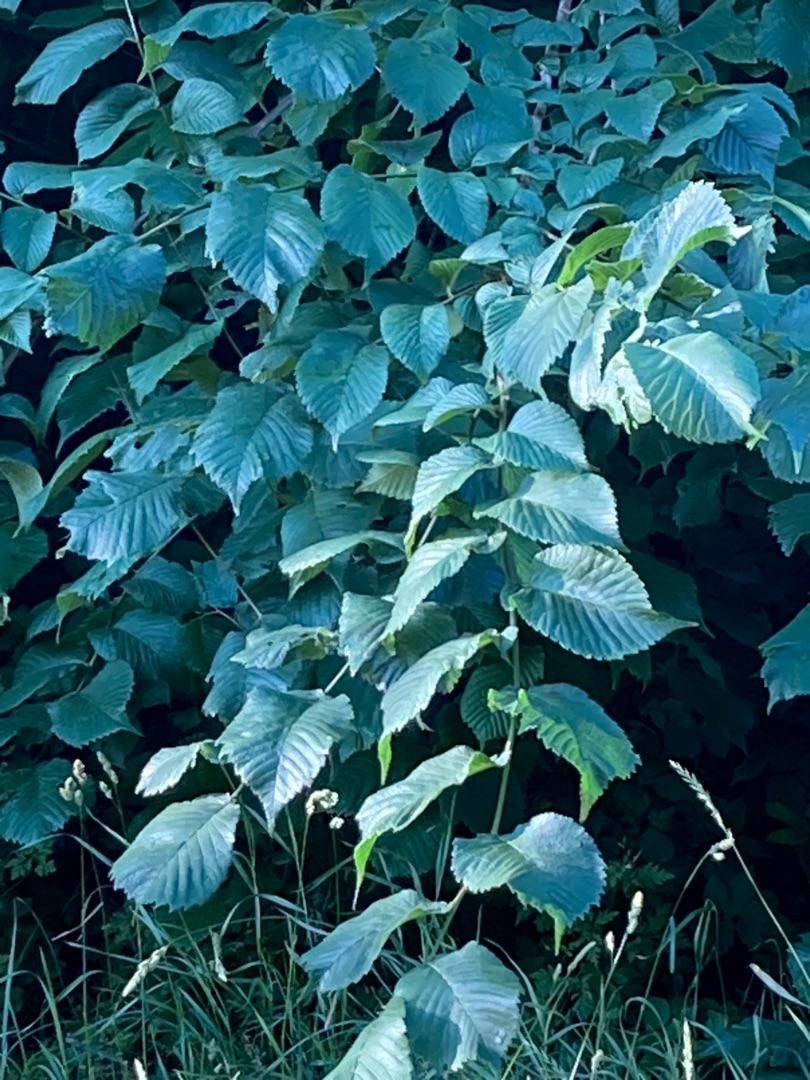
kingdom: Plantae
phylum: Tracheophyta
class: Magnoliopsida
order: Rosales
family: Ulmaceae
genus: Ulmus
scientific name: Ulmus glabra
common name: Skov-elm/storbladet elm
